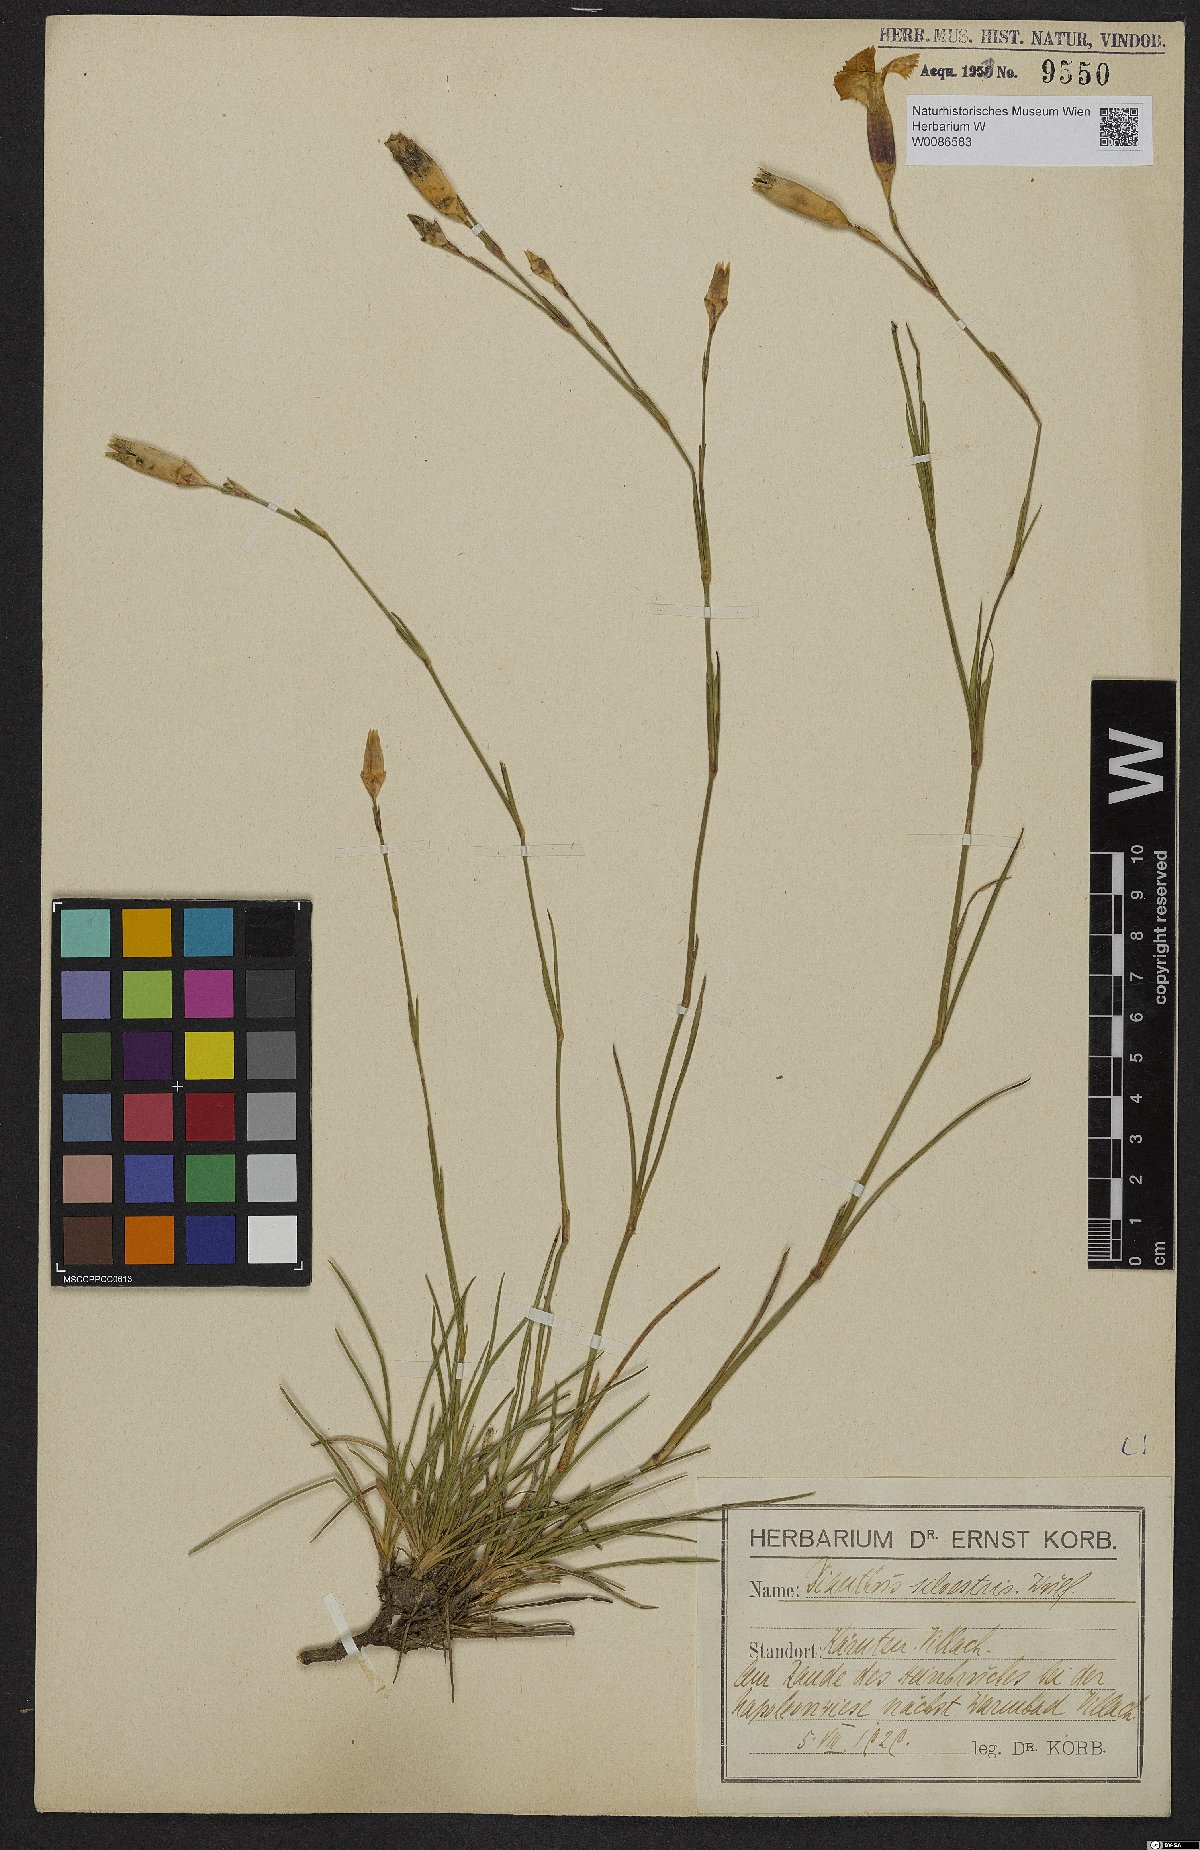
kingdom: Plantae
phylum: Tracheophyta
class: Magnoliopsida
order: Caryophyllales
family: Caryophyllaceae
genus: Dianthus
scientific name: Dianthus sylvestris
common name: Wood pink
